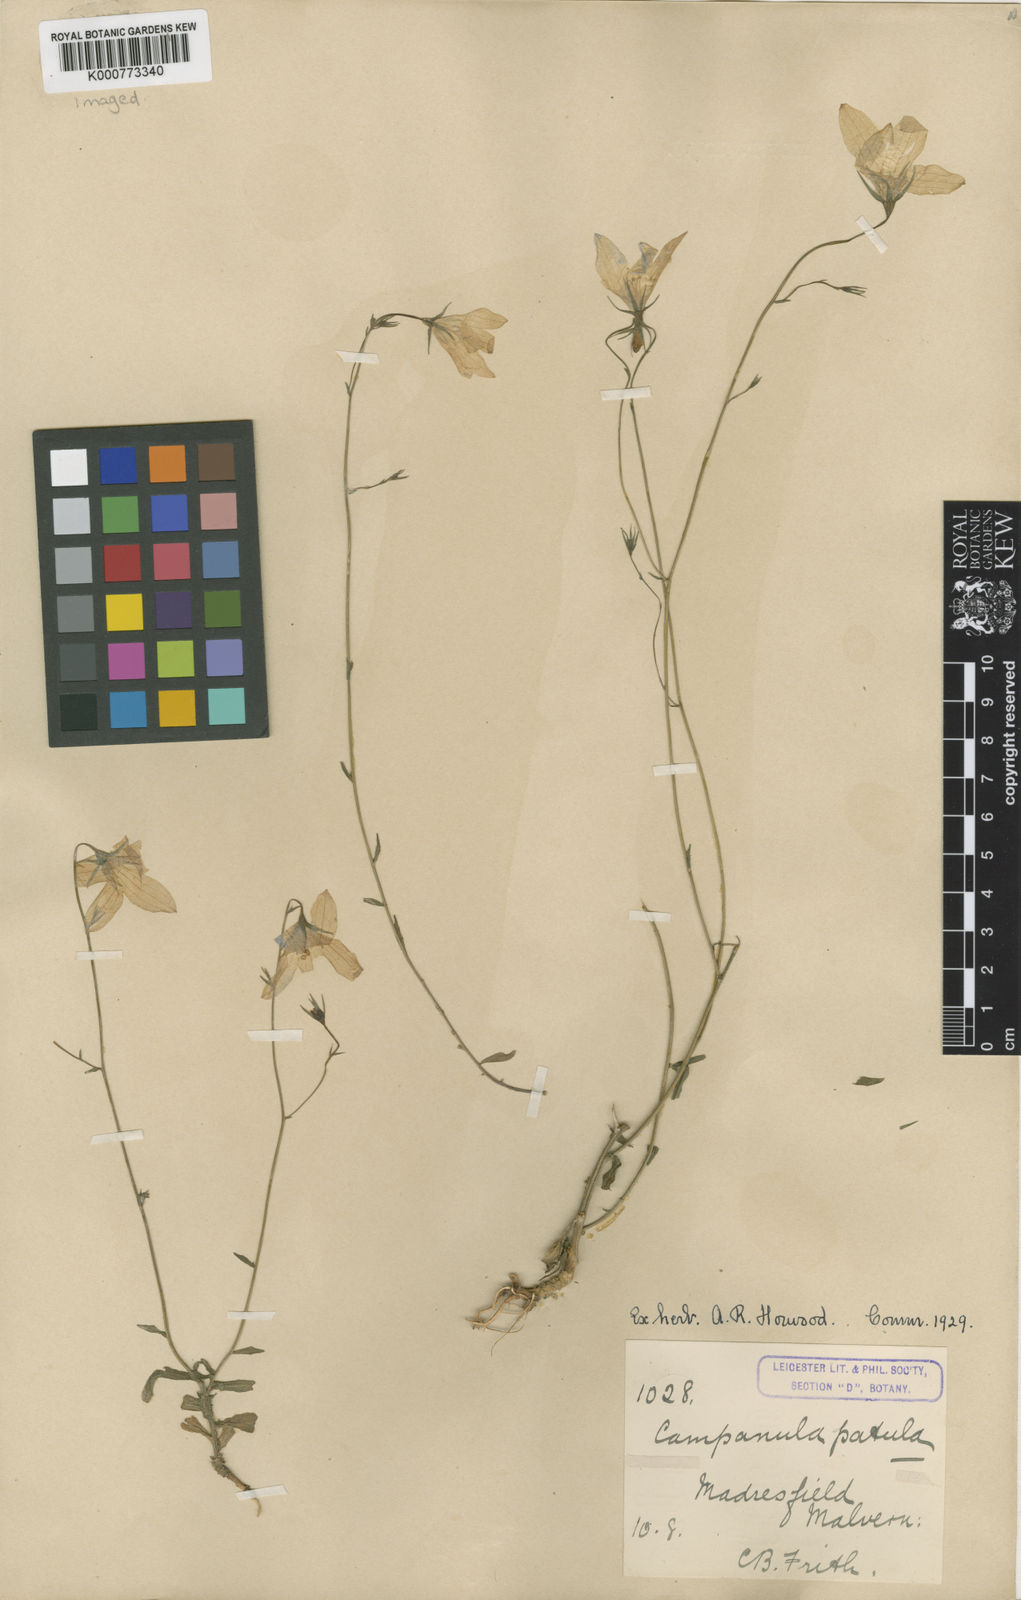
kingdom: Plantae
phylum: Tracheophyta
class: Magnoliopsida
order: Asterales
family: Campanulaceae
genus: Campanula
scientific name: Campanula patula
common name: Spreading bellflower
